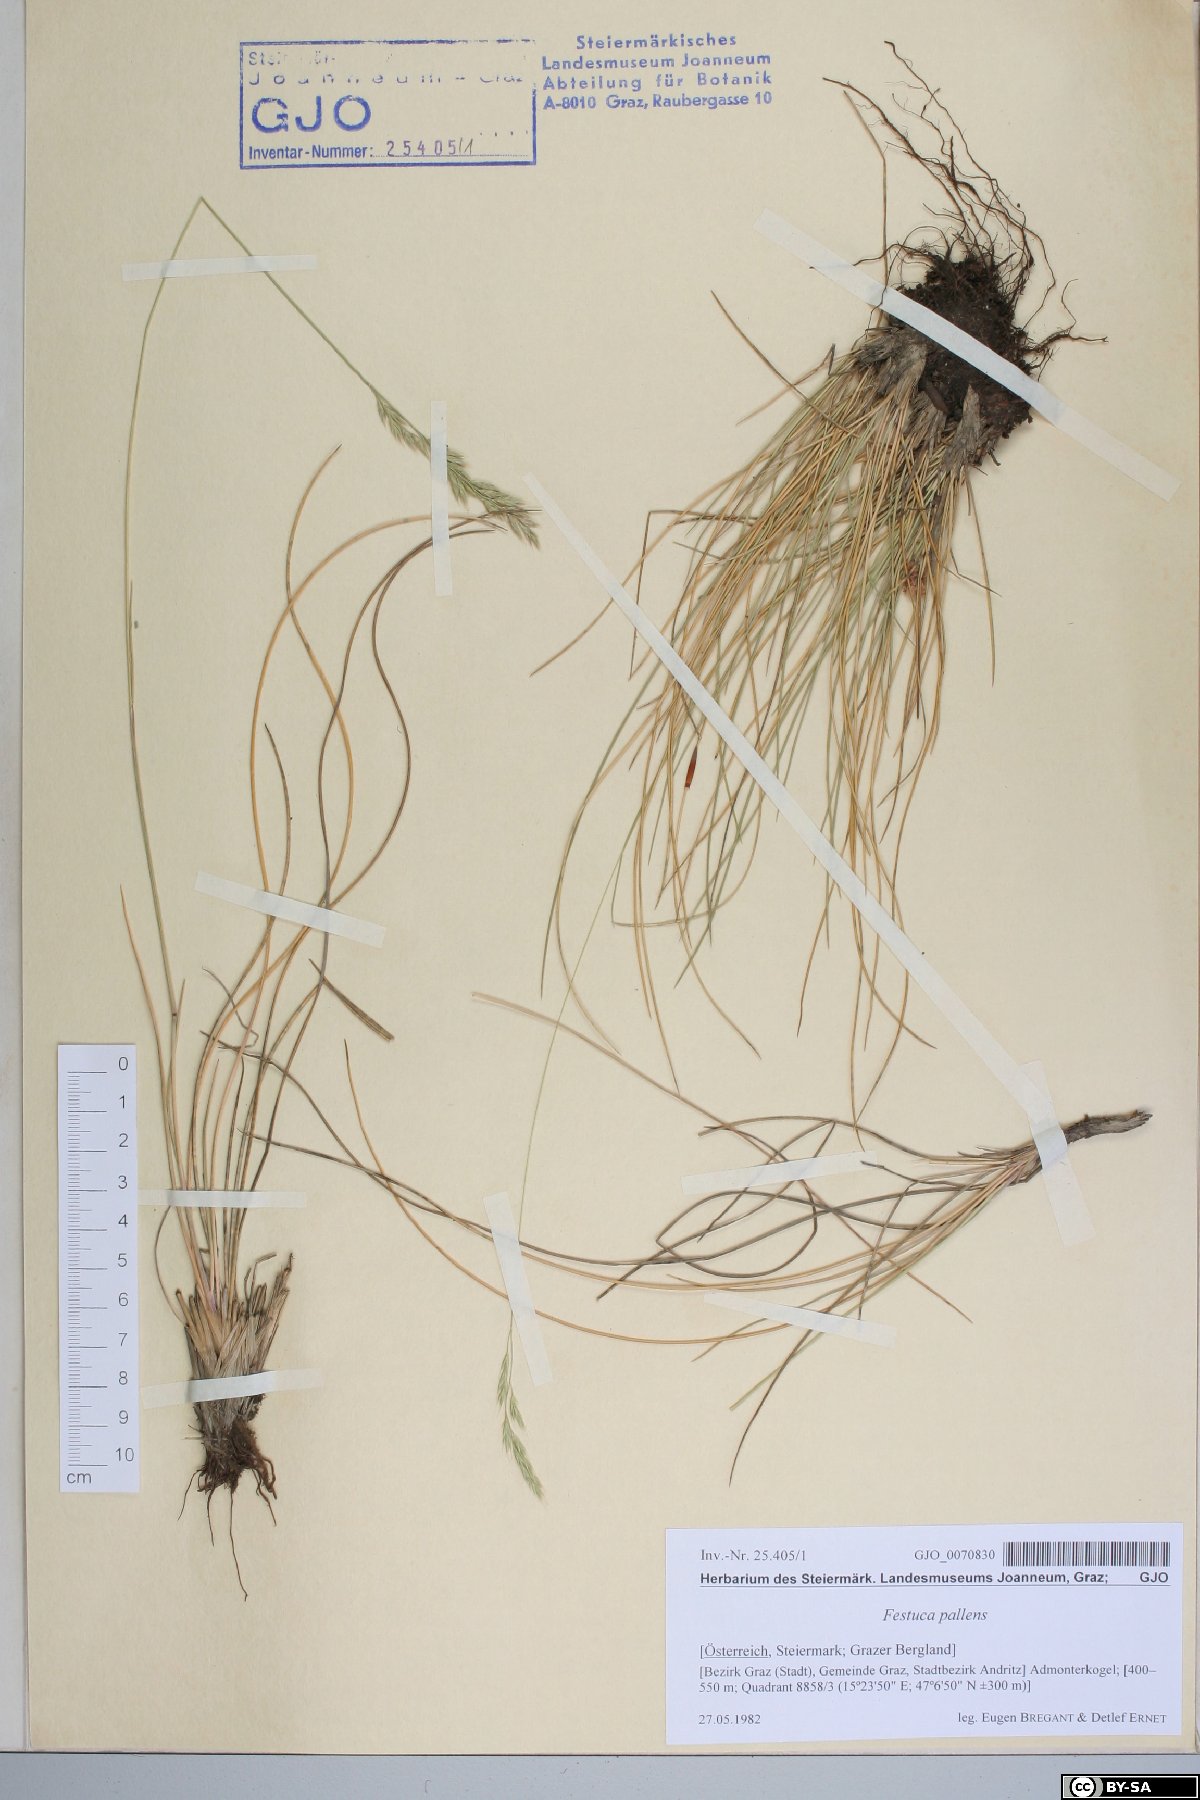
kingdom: Plantae
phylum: Tracheophyta
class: Liliopsida
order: Poales
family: Poaceae
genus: Festuca
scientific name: Festuca pallens
